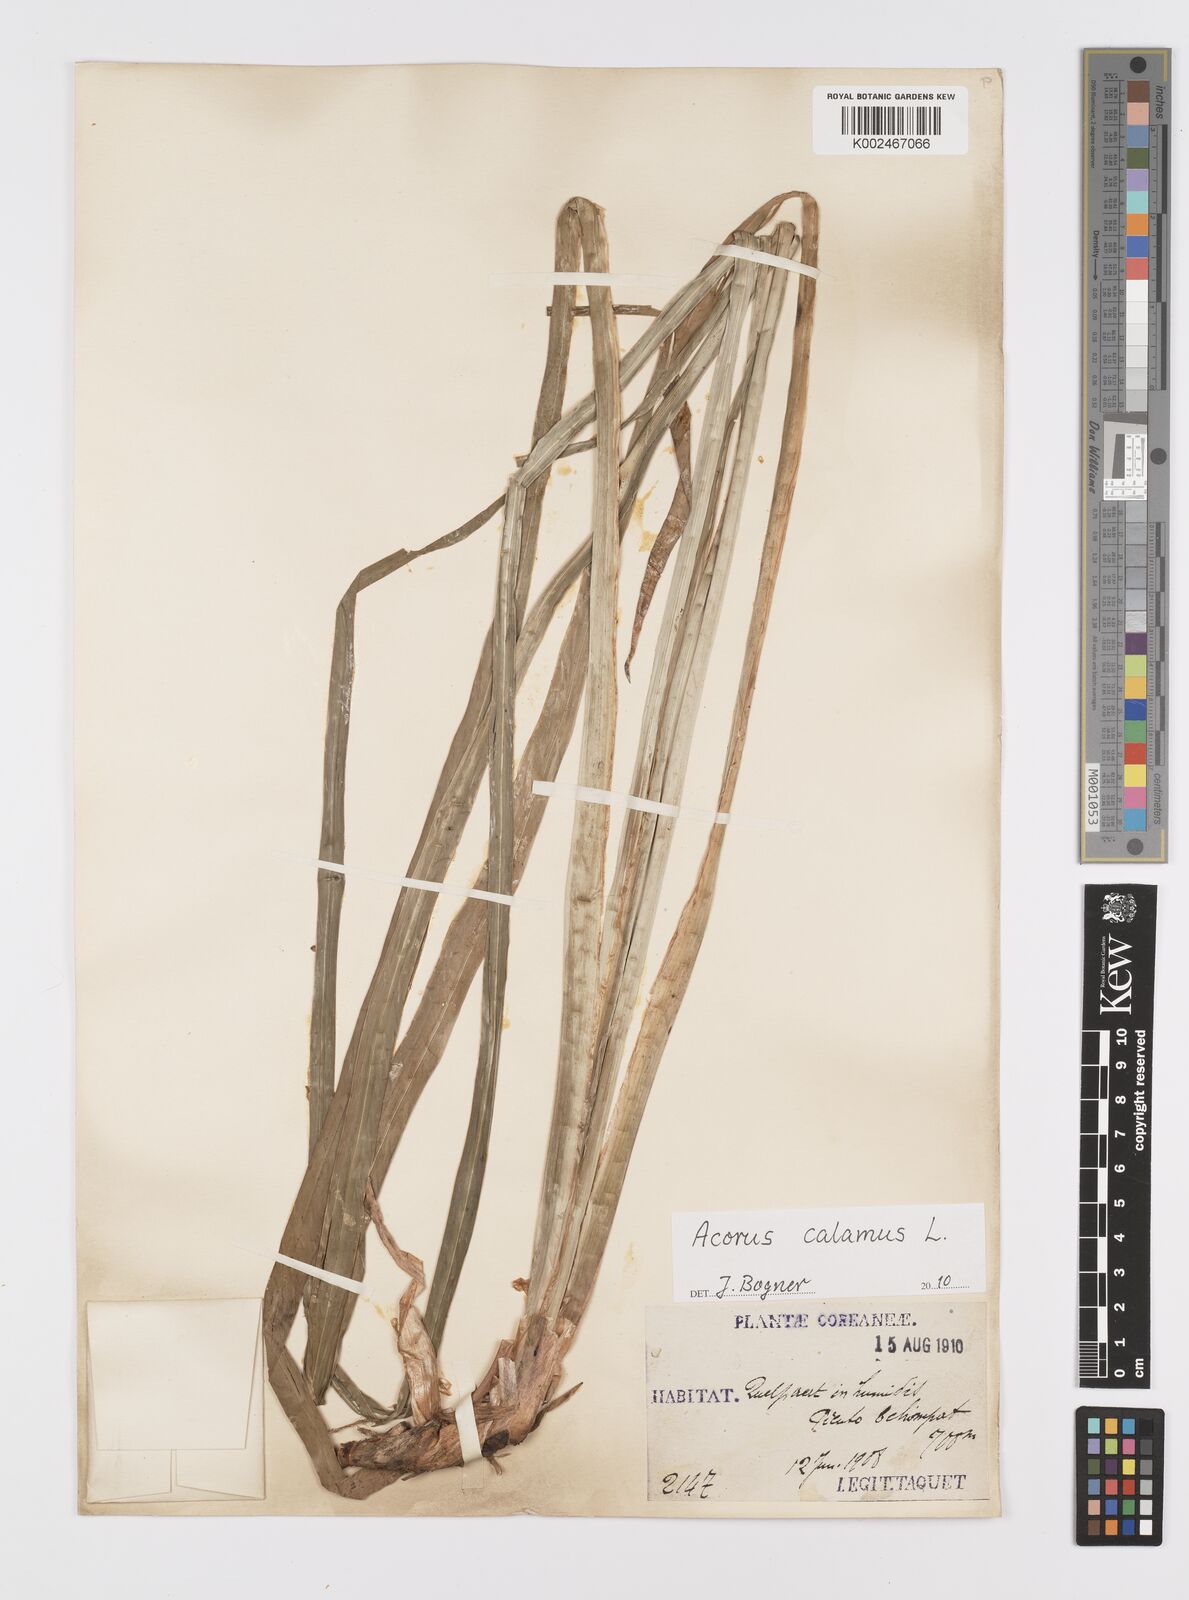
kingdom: Plantae
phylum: Tracheophyta
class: Liliopsida
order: Acorales
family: Acoraceae
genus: Acorus
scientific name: Acorus calamus
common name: Sweet-flag
